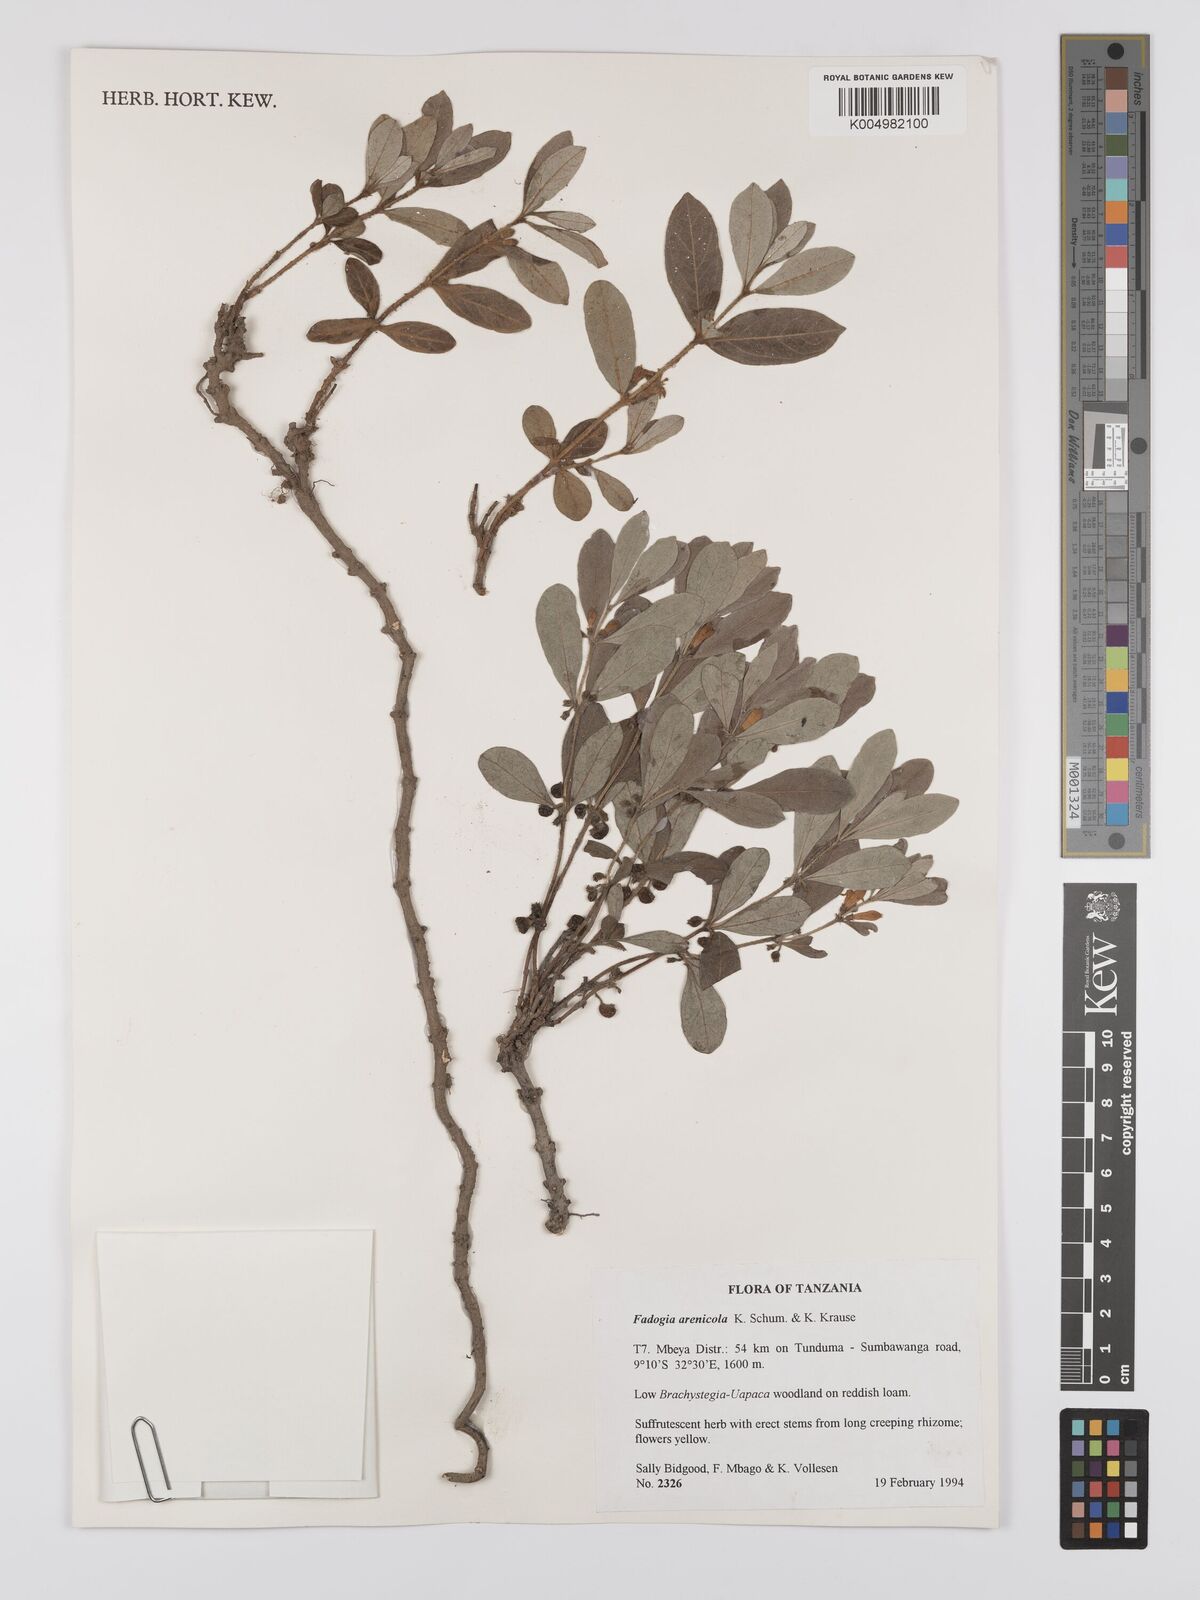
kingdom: Plantae
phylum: Tracheophyta
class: Magnoliopsida
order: Gentianales
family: Rubiaceae
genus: Fadogia
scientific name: Fadogia arenicola
